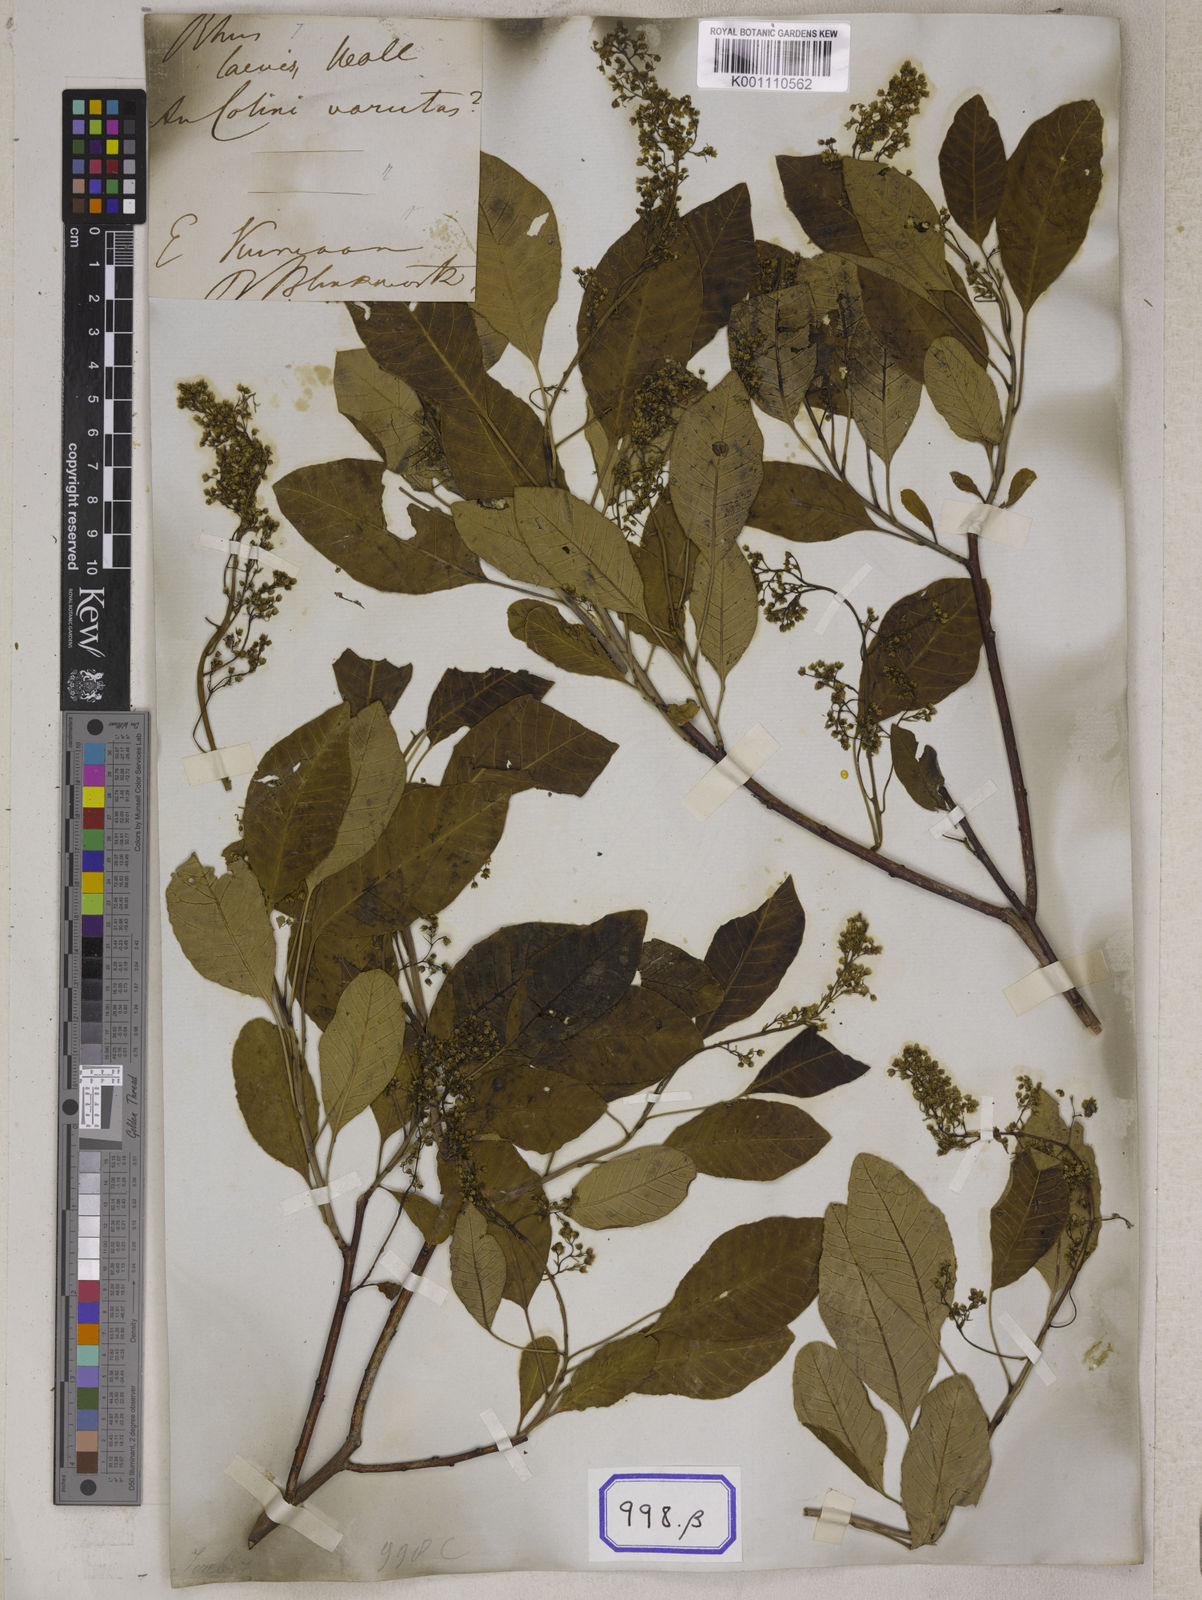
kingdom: Plantae
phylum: Tracheophyta
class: Magnoliopsida
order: Sapindales
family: Anacardiaceae
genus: Rhus
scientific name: Rhus
